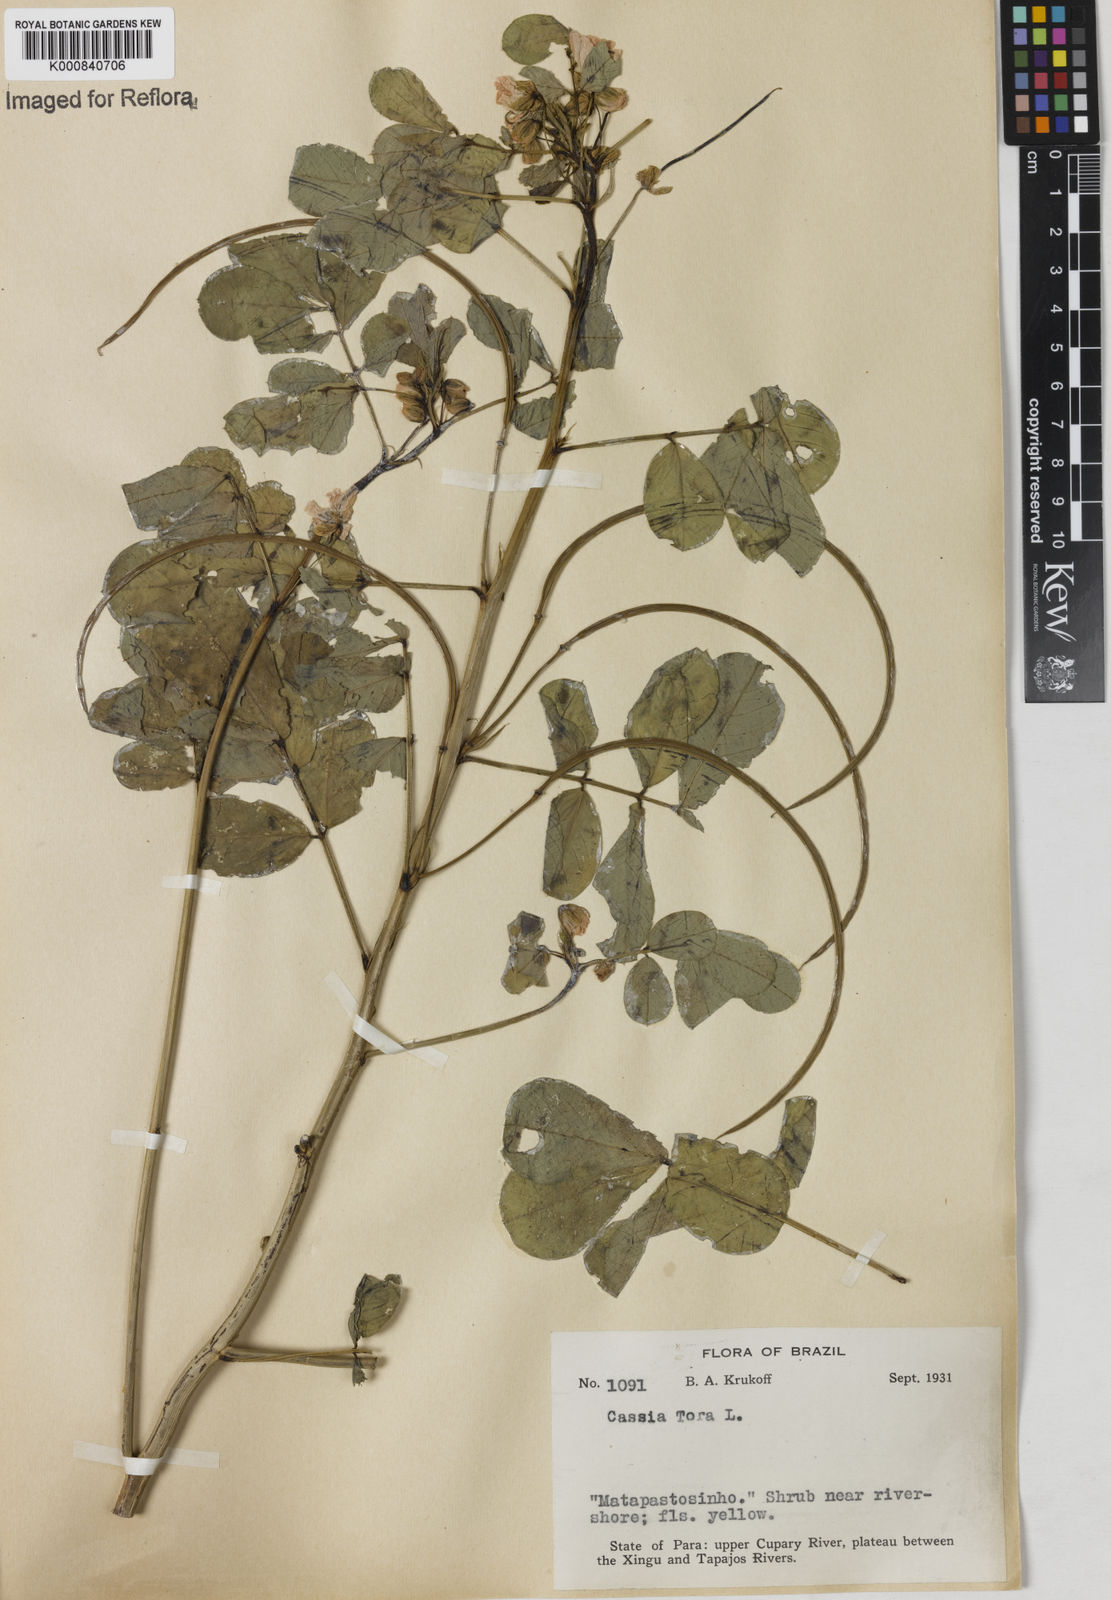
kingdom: Plantae
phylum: Tracheophyta
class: Magnoliopsida
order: Fabales
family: Fabaceae
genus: Senna
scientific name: Senna obtusifolia
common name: Java-bean
